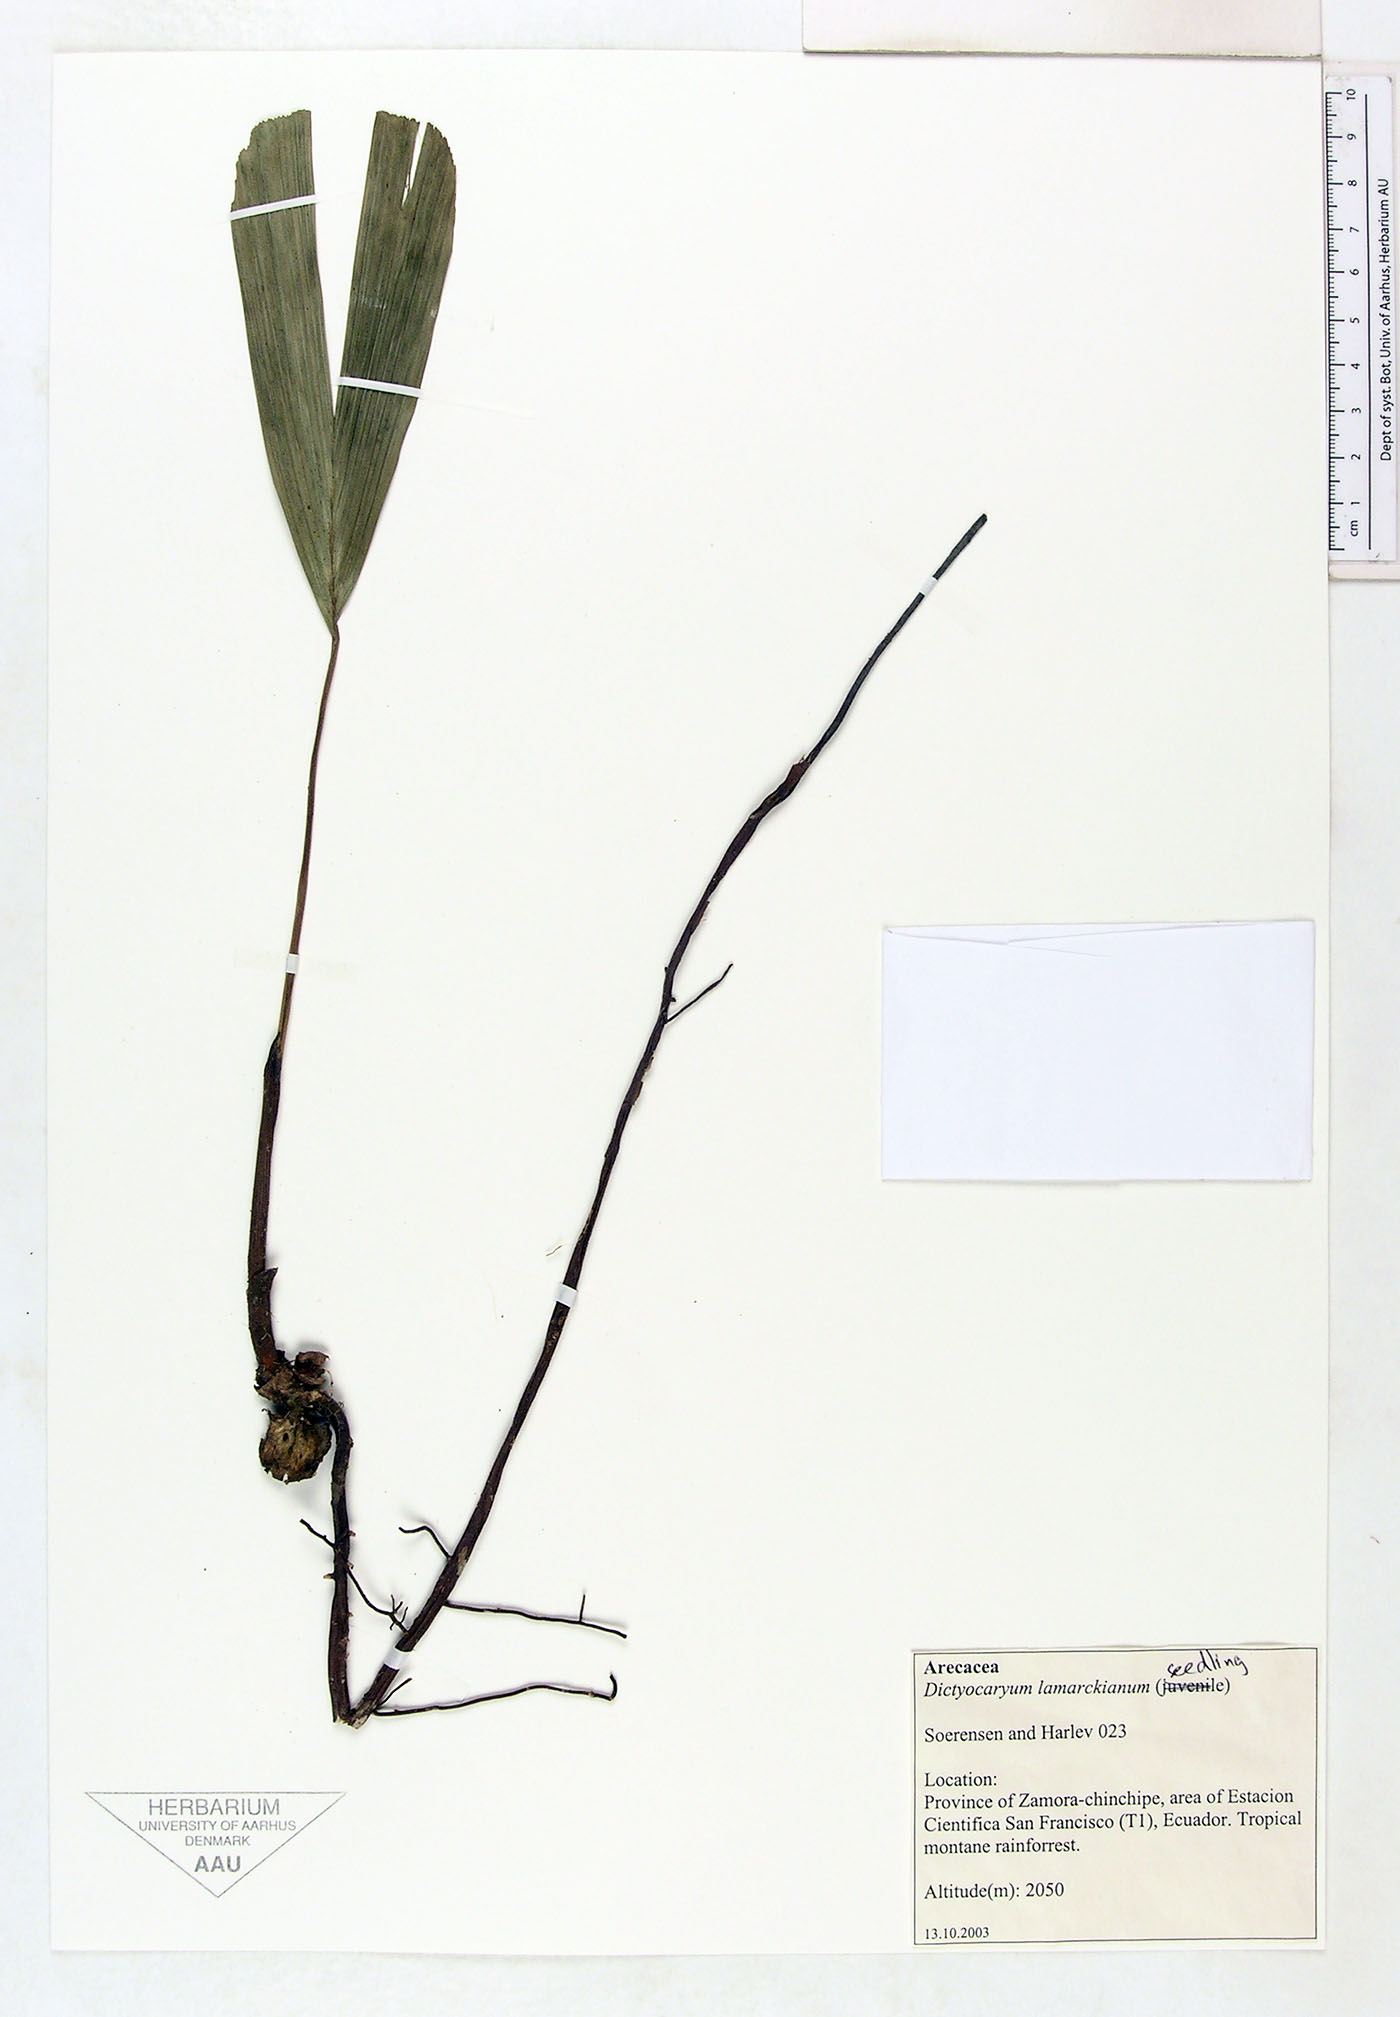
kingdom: Plantae
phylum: Tracheophyta
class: Liliopsida
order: Arecales
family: Arecaceae
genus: Dictyocaryum
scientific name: Dictyocaryum lamarckianum
